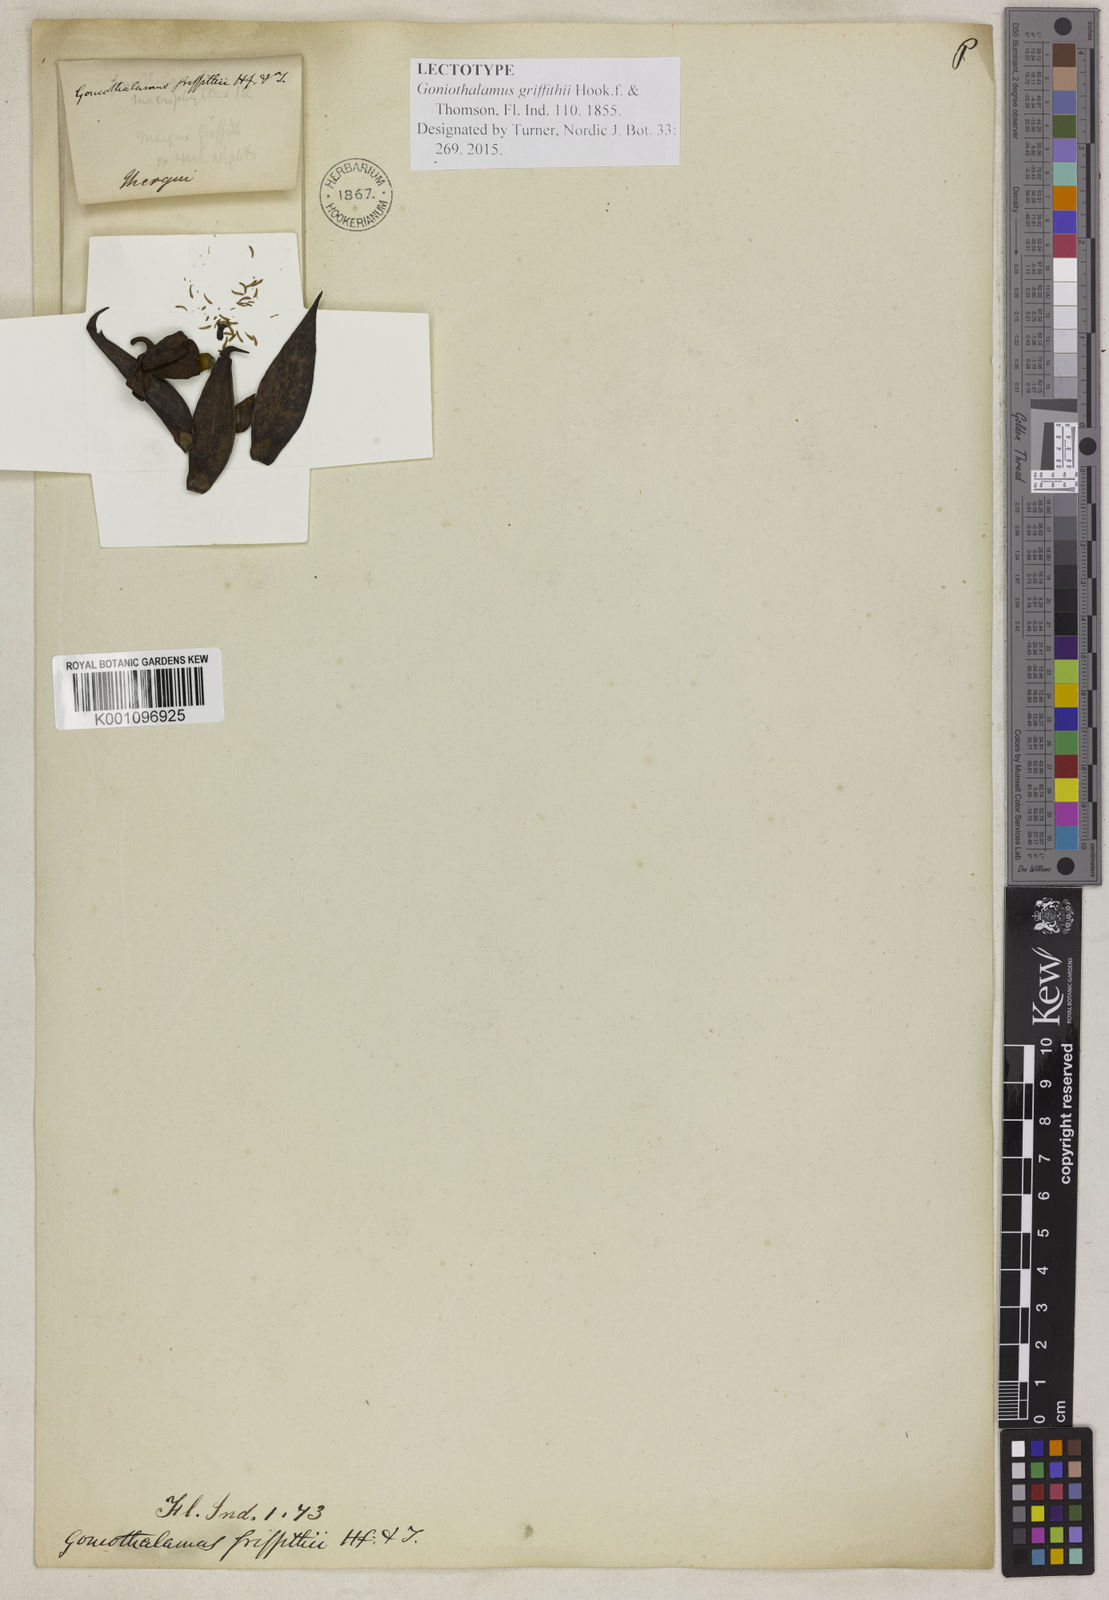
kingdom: Plantae
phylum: Tracheophyta
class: Magnoliopsida
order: Magnoliales
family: Annonaceae
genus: Goniothalamus
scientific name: Goniothalamus griffithii
